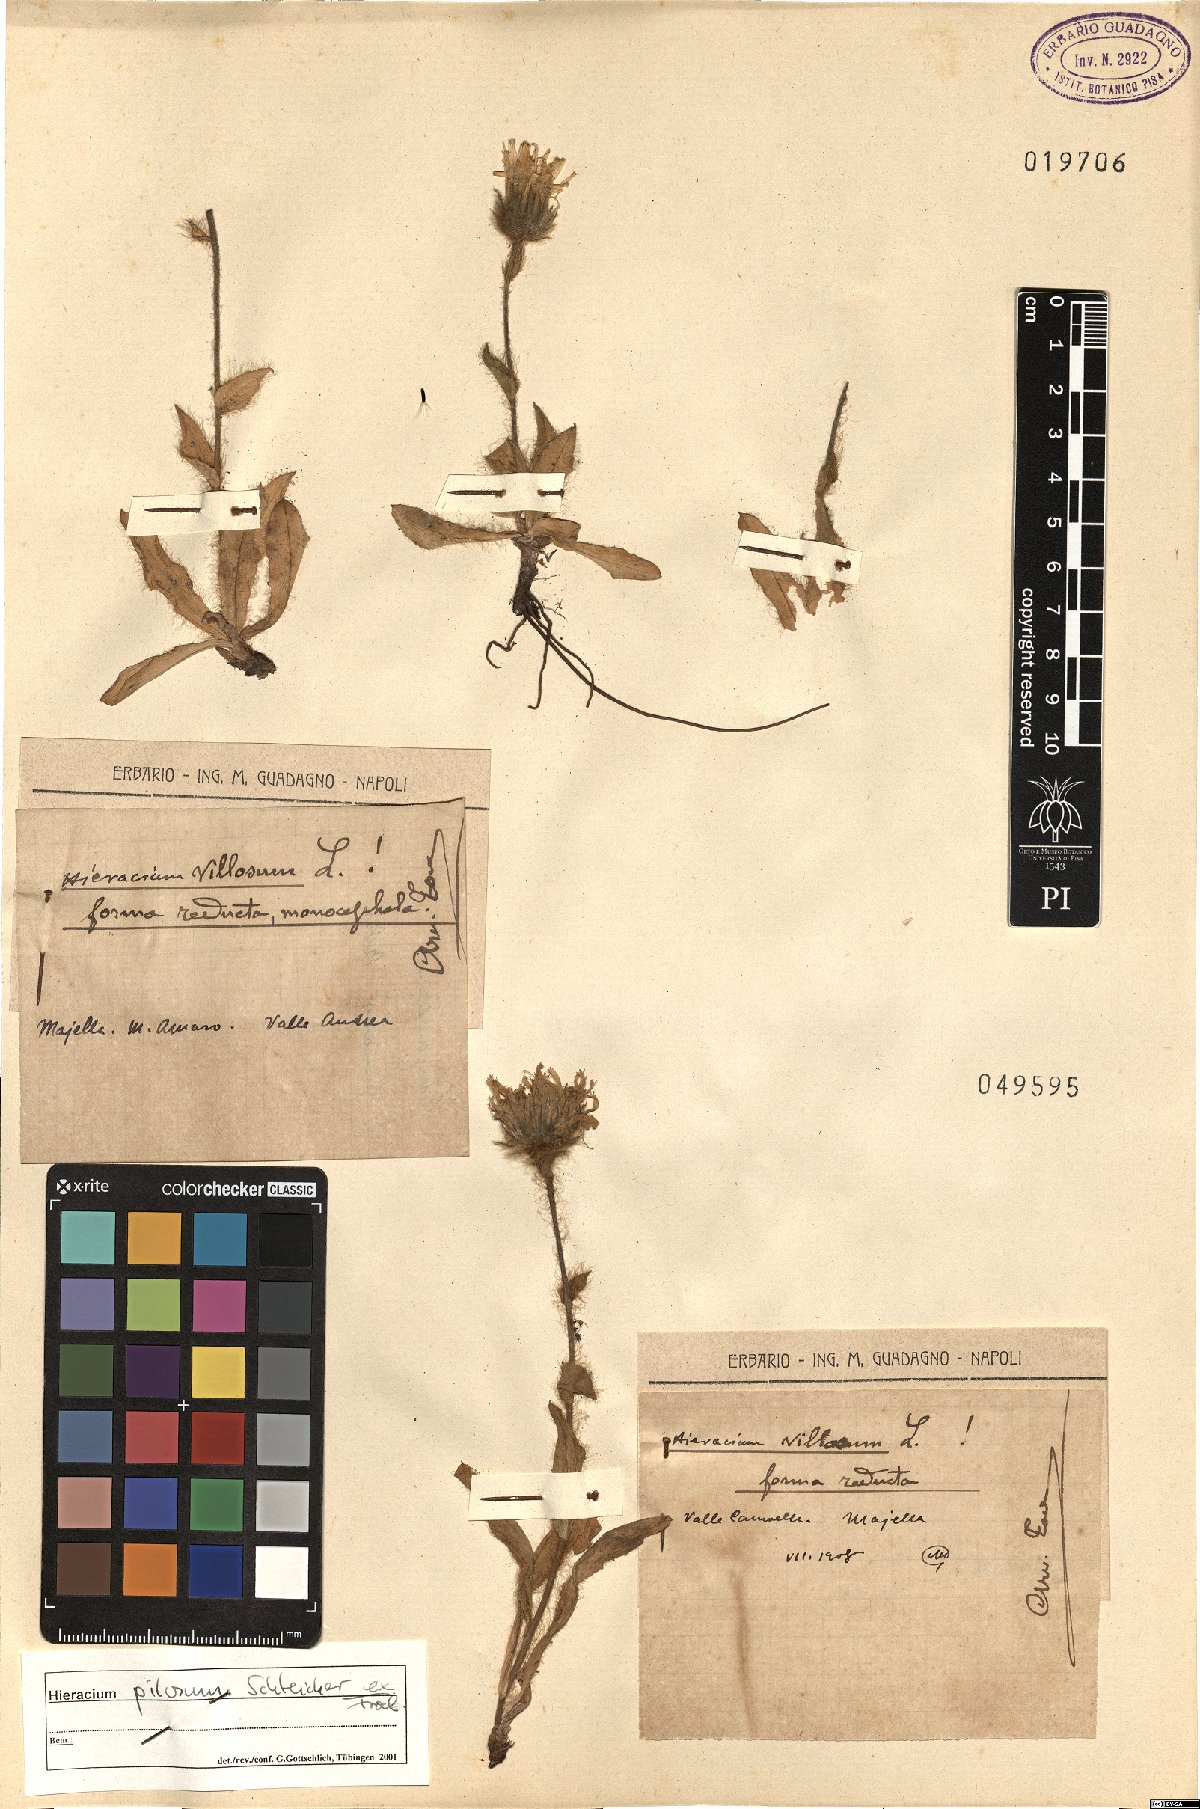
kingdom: Plantae
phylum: Tracheophyta
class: Magnoliopsida
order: Asterales
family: Asteraceae
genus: Hieracium
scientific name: Hieracium pilosum
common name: Fimbriate-pitted hawkweed
